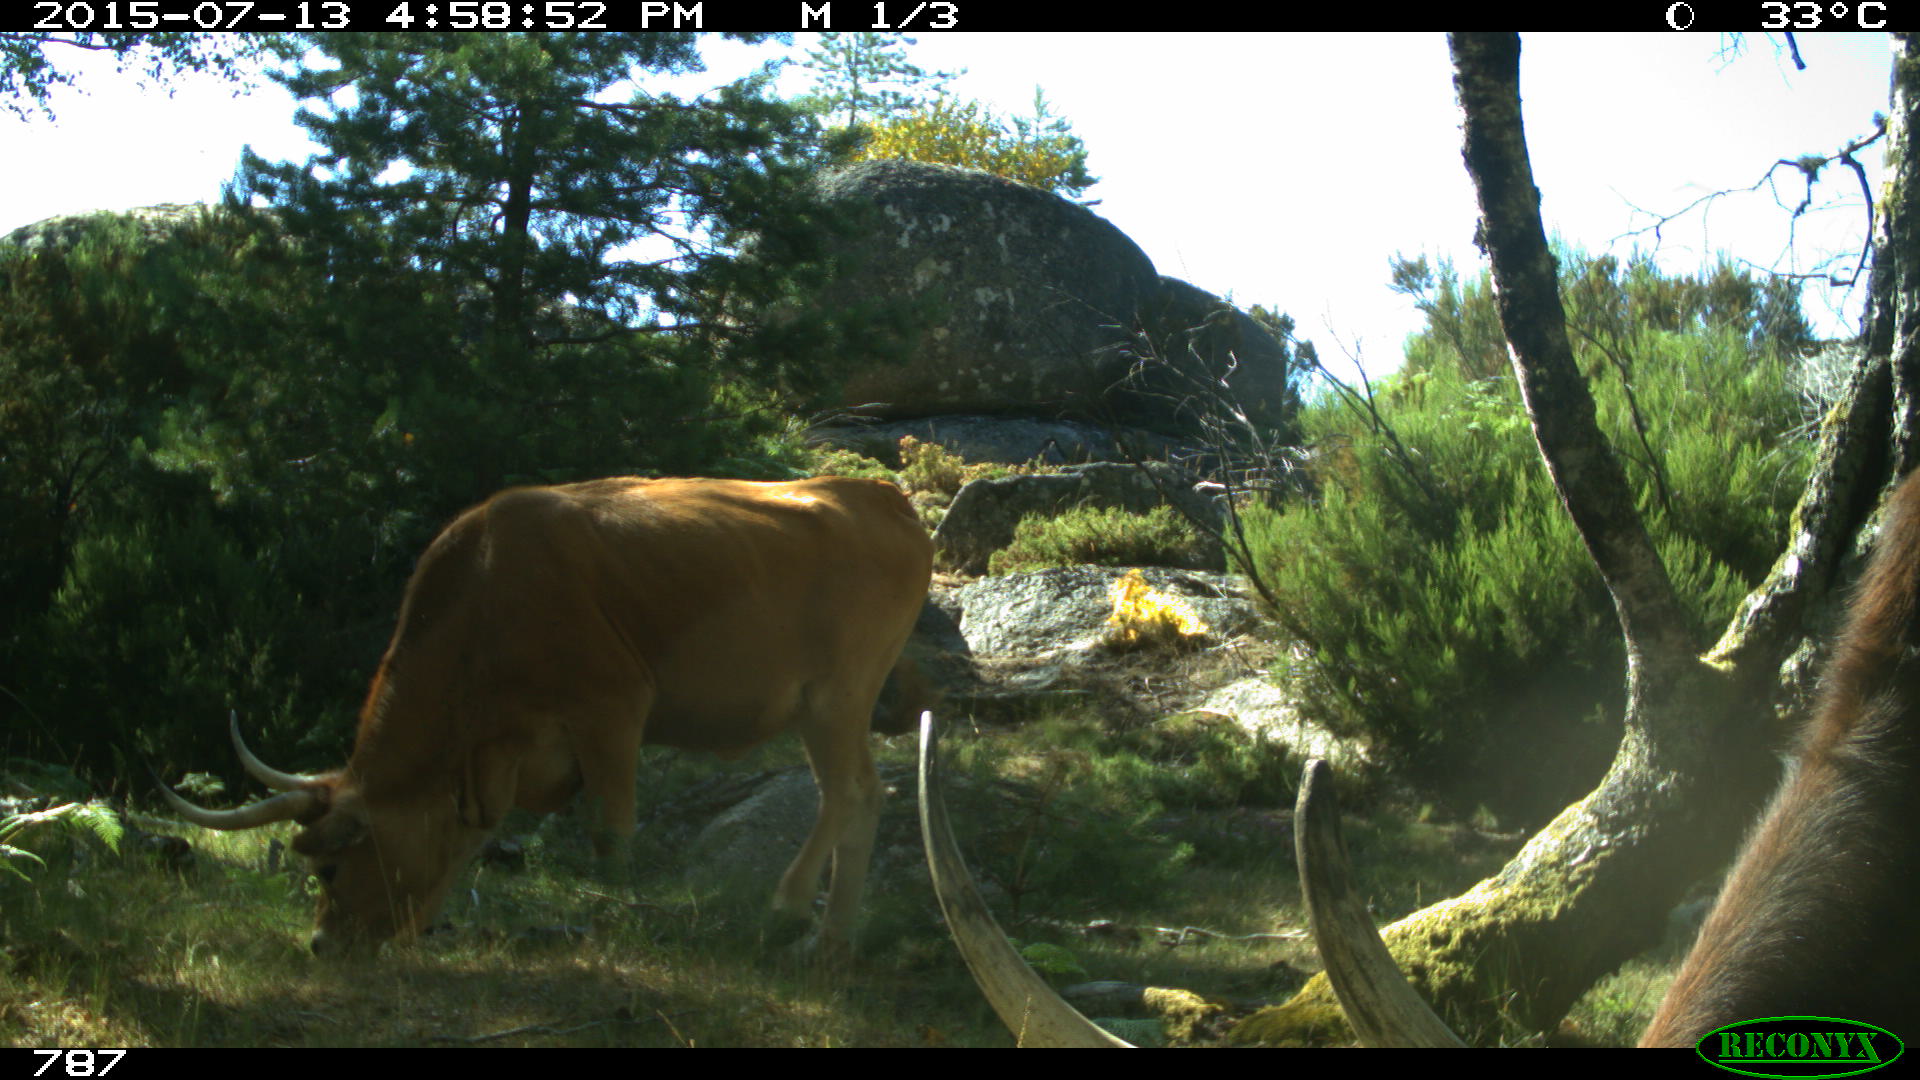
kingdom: Animalia
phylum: Chordata
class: Mammalia
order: Artiodactyla
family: Bovidae
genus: Bos
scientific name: Bos taurus
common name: Domesticated cattle
